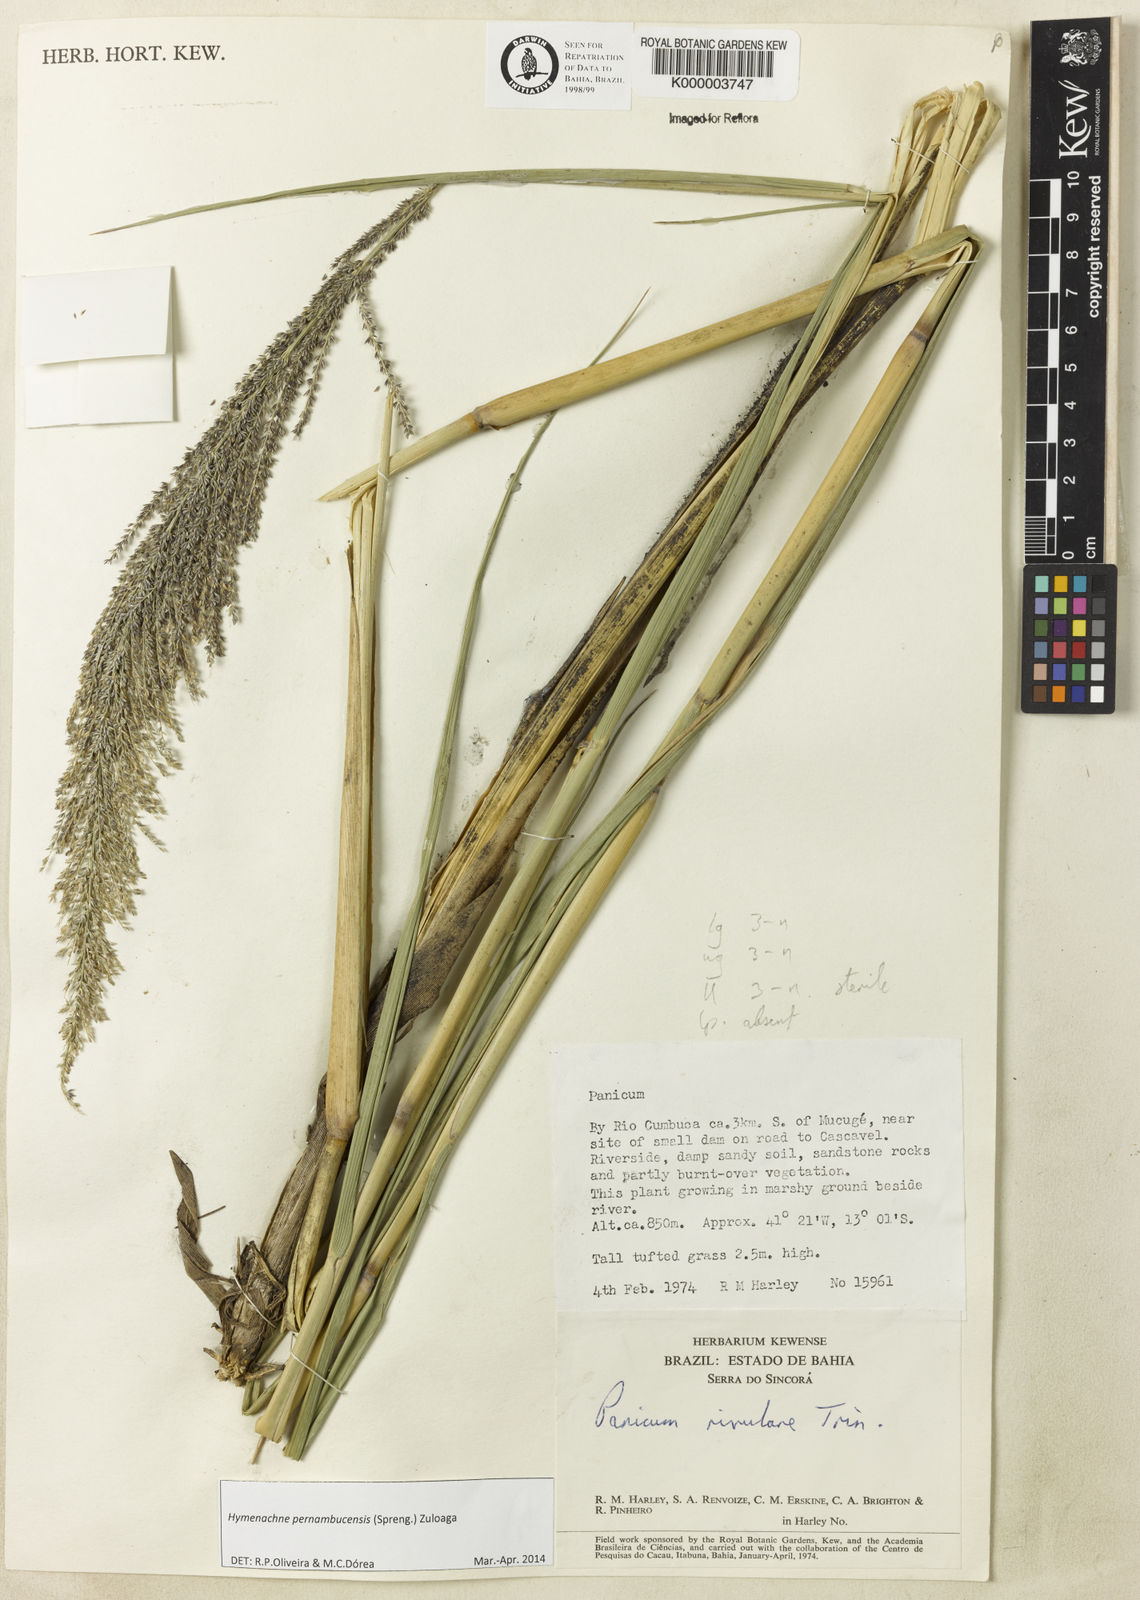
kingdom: Plantae
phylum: Tracheophyta
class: Liliopsida
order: Poales
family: Poaceae
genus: Hymenachne
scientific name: Hymenachne pernambucensis
